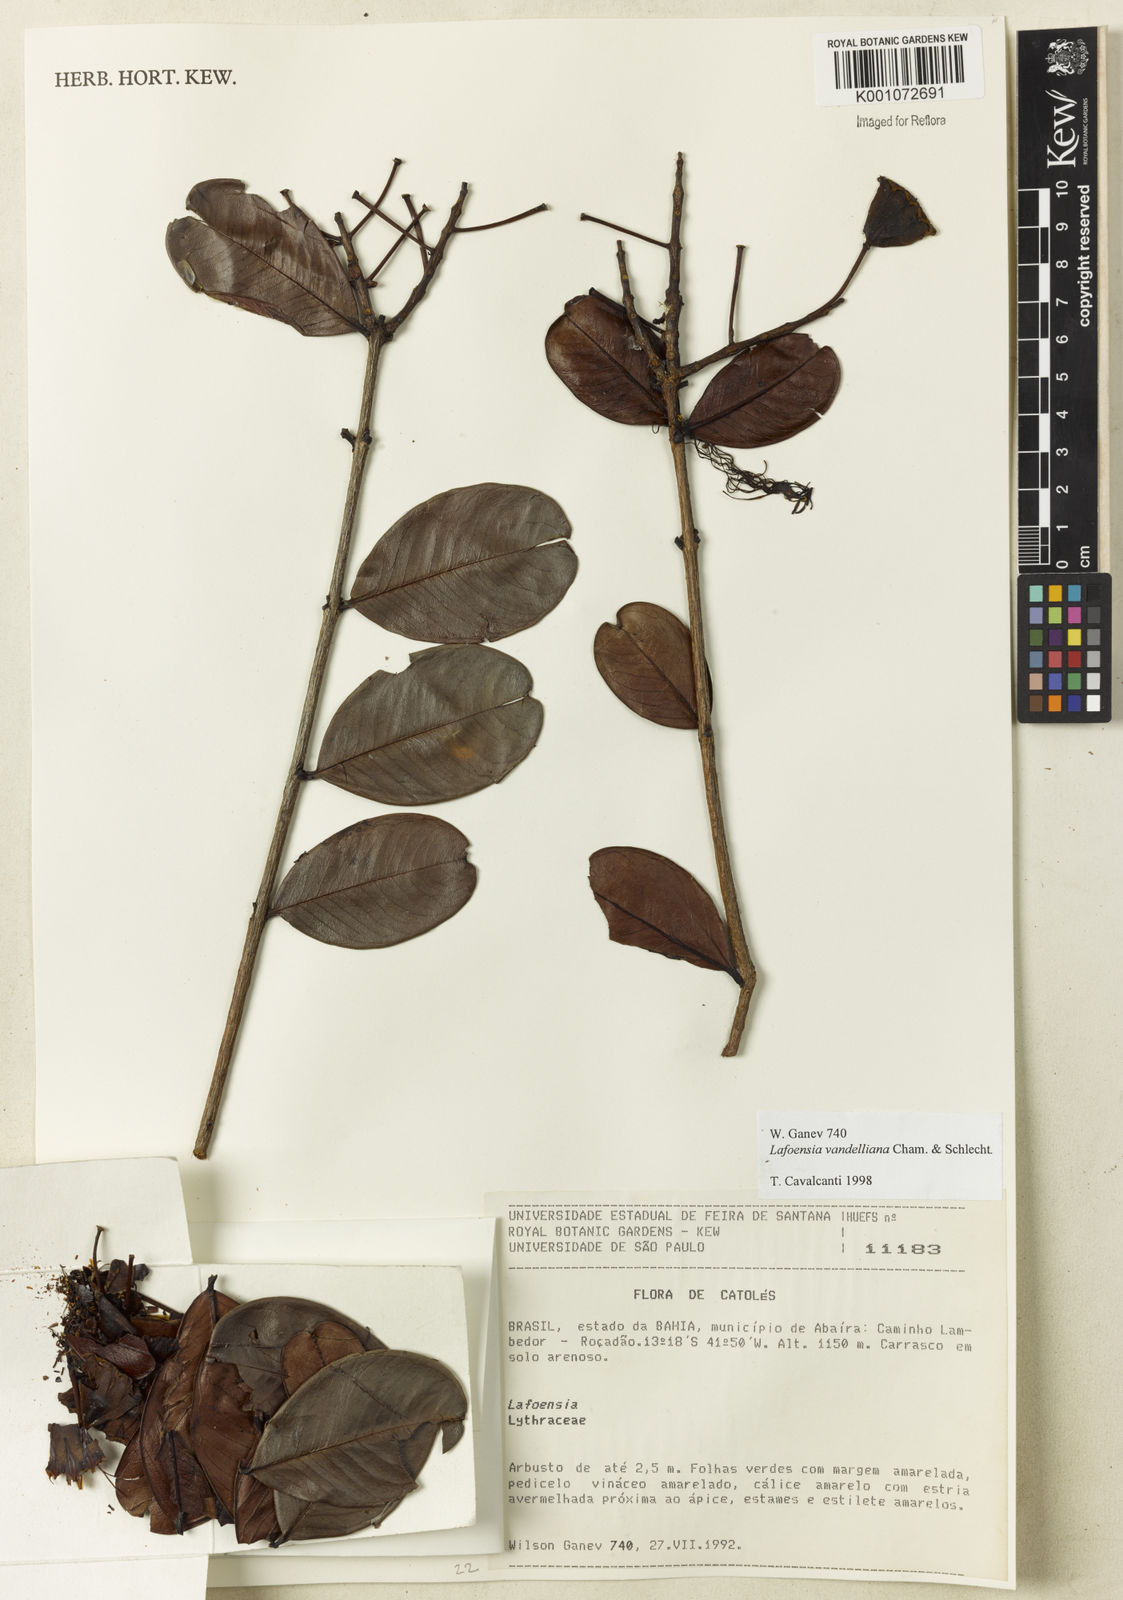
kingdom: Plantae
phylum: Tracheophyta
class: Magnoliopsida
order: Myrtales
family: Lythraceae
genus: Lafoensia
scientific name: Lafoensia vandelliana
